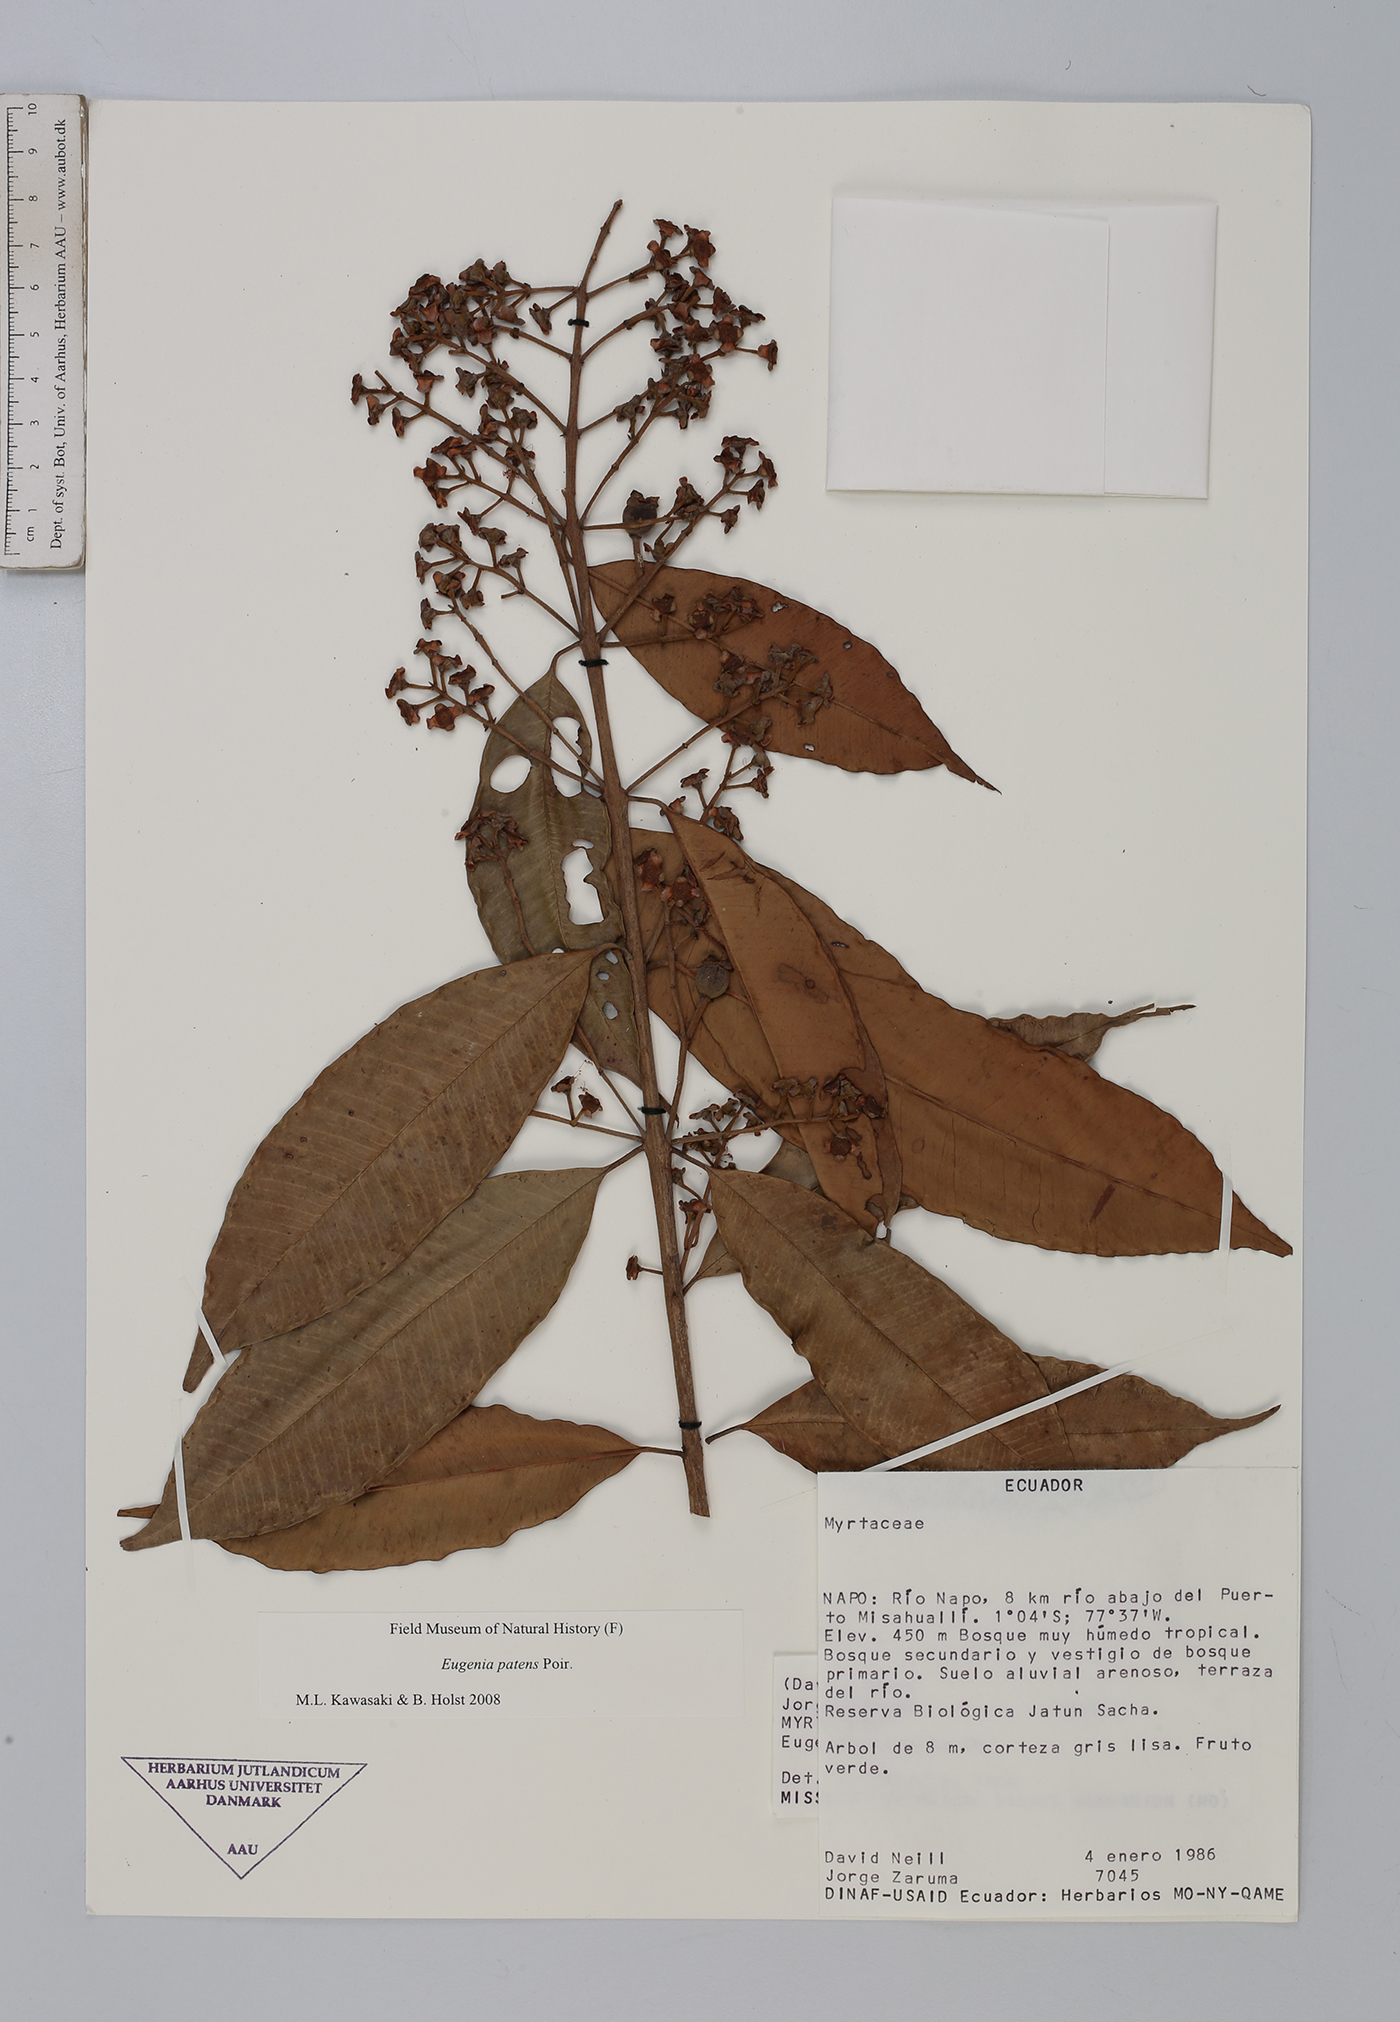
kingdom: Plantae
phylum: Tracheophyta
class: Magnoliopsida
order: Myrtales
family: Myrtaceae
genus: Eugenia
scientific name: Eugenia patens
